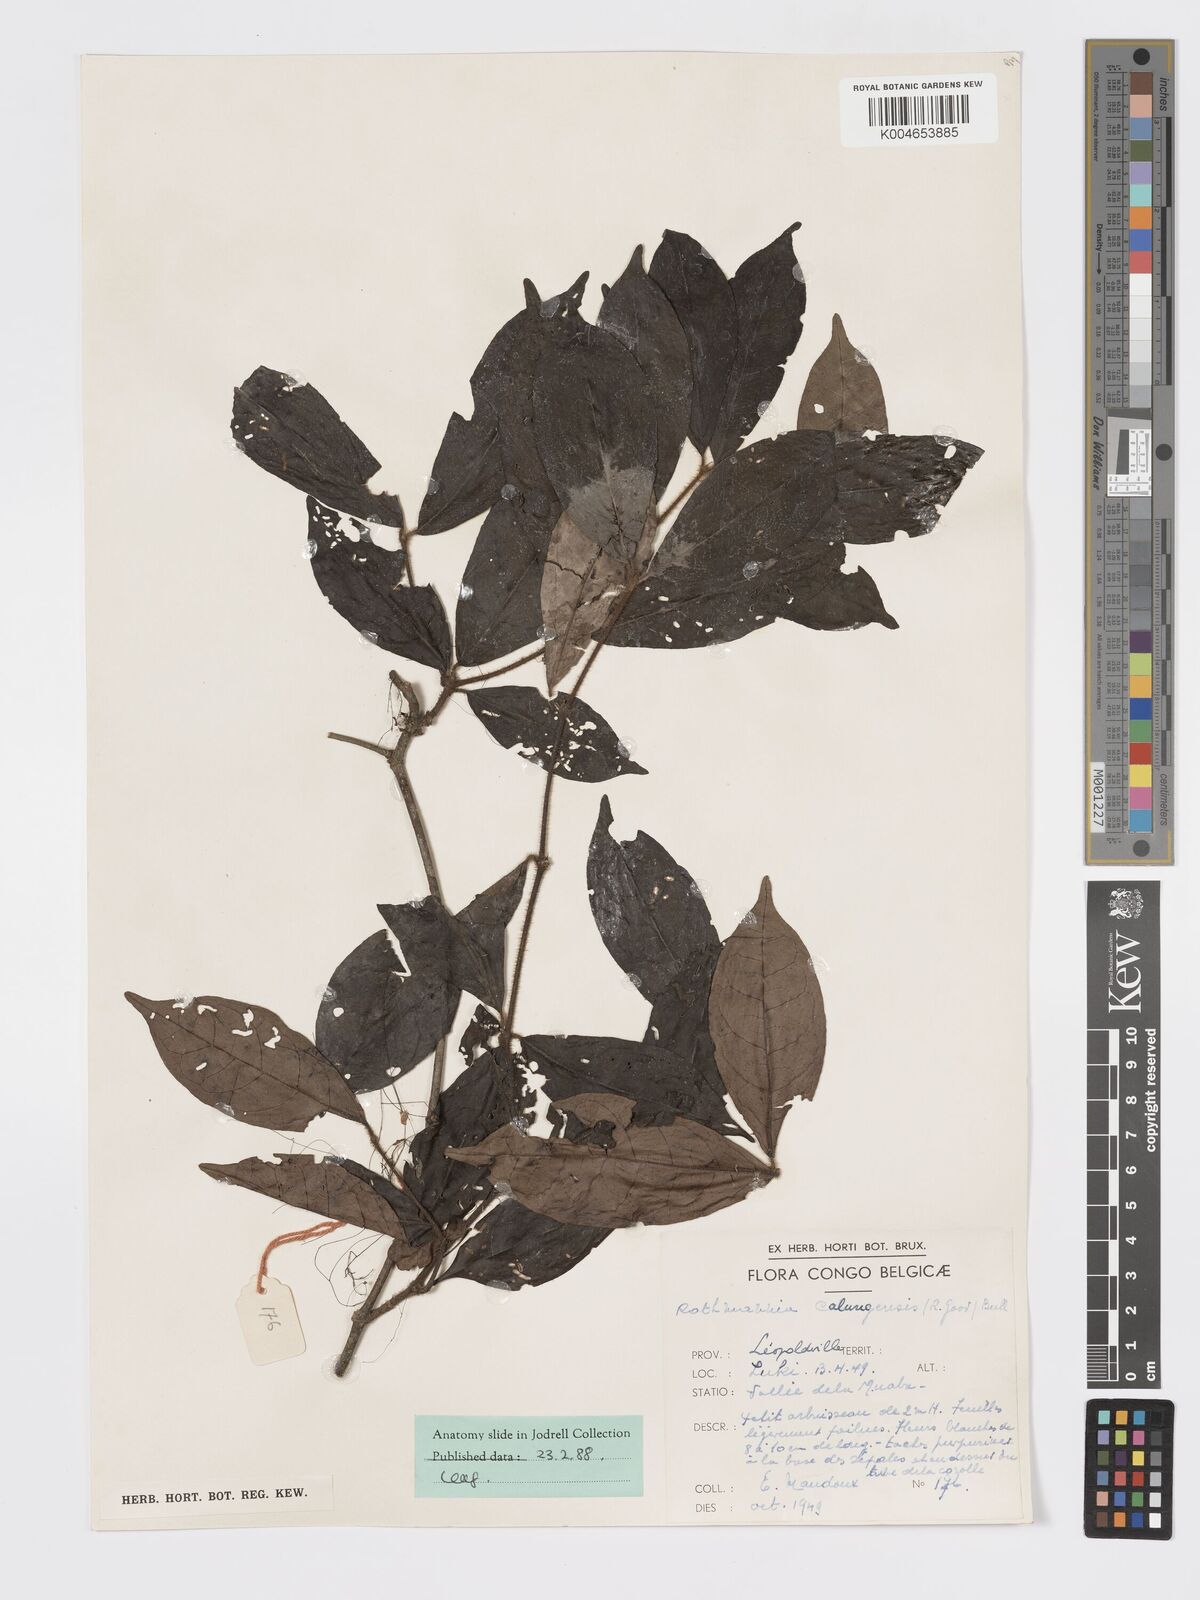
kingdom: Plantae
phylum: Tracheophyta
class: Magnoliopsida
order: Gentianales
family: Rubiaceae
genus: Rothmannia
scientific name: Rothmannia liebrechtsiana
